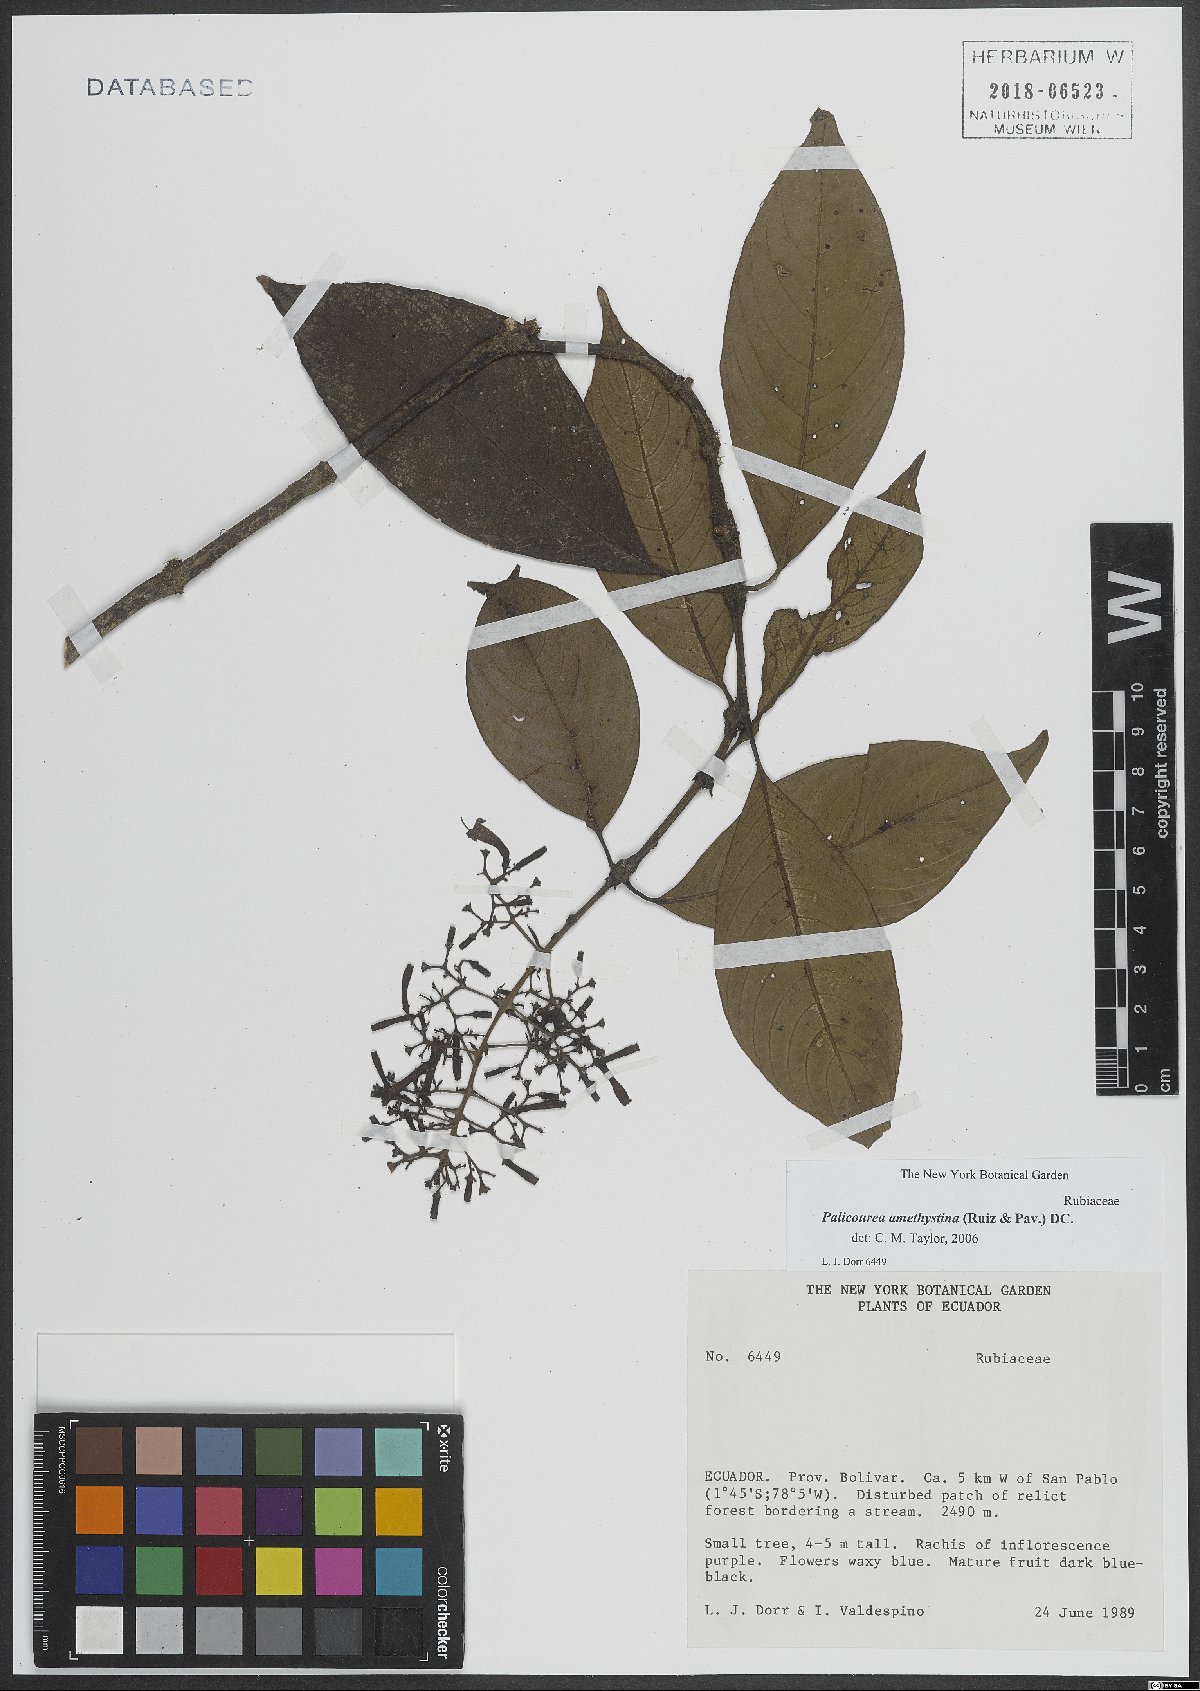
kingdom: Plantae
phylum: Tracheophyta
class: Magnoliopsida
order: Gentianales
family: Rubiaceae
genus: Palicourea
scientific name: Palicourea amethystina
